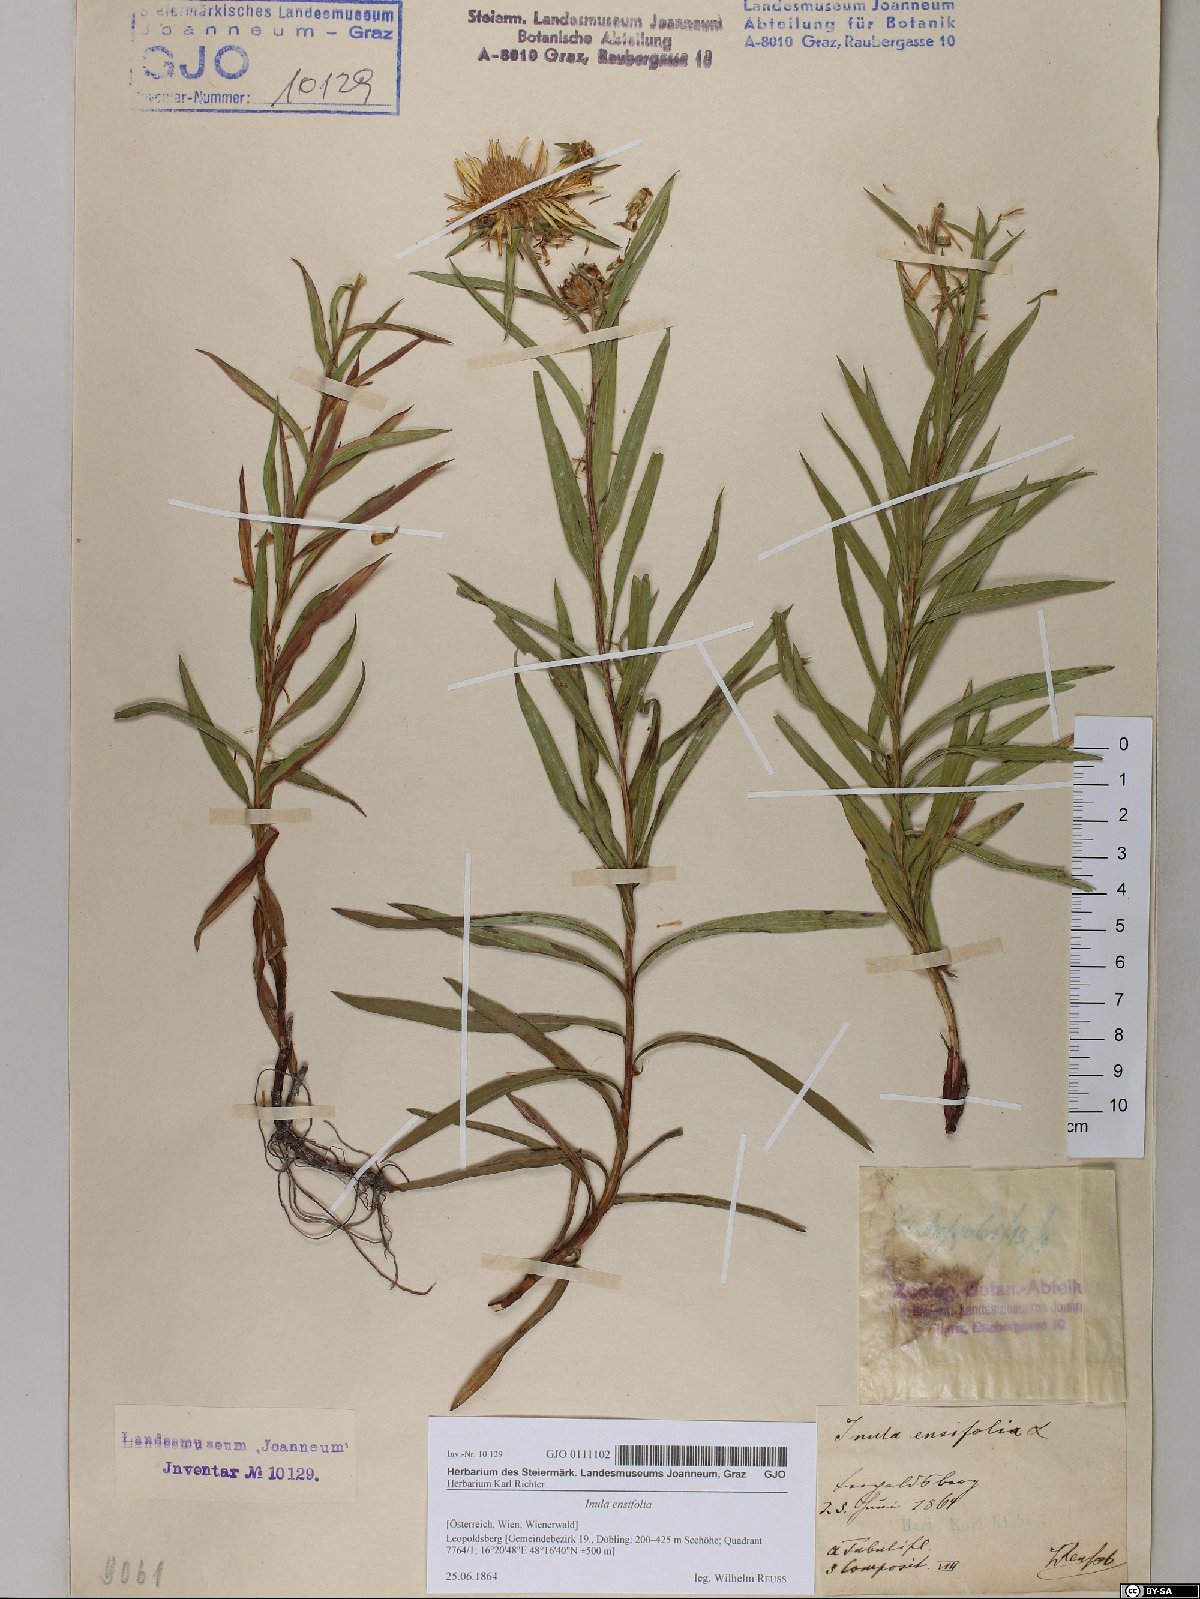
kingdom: Plantae
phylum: Tracheophyta
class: Magnoliopsida
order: Asterales
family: Asteraceae
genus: Pentanema
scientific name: Pentanema ensifolium
